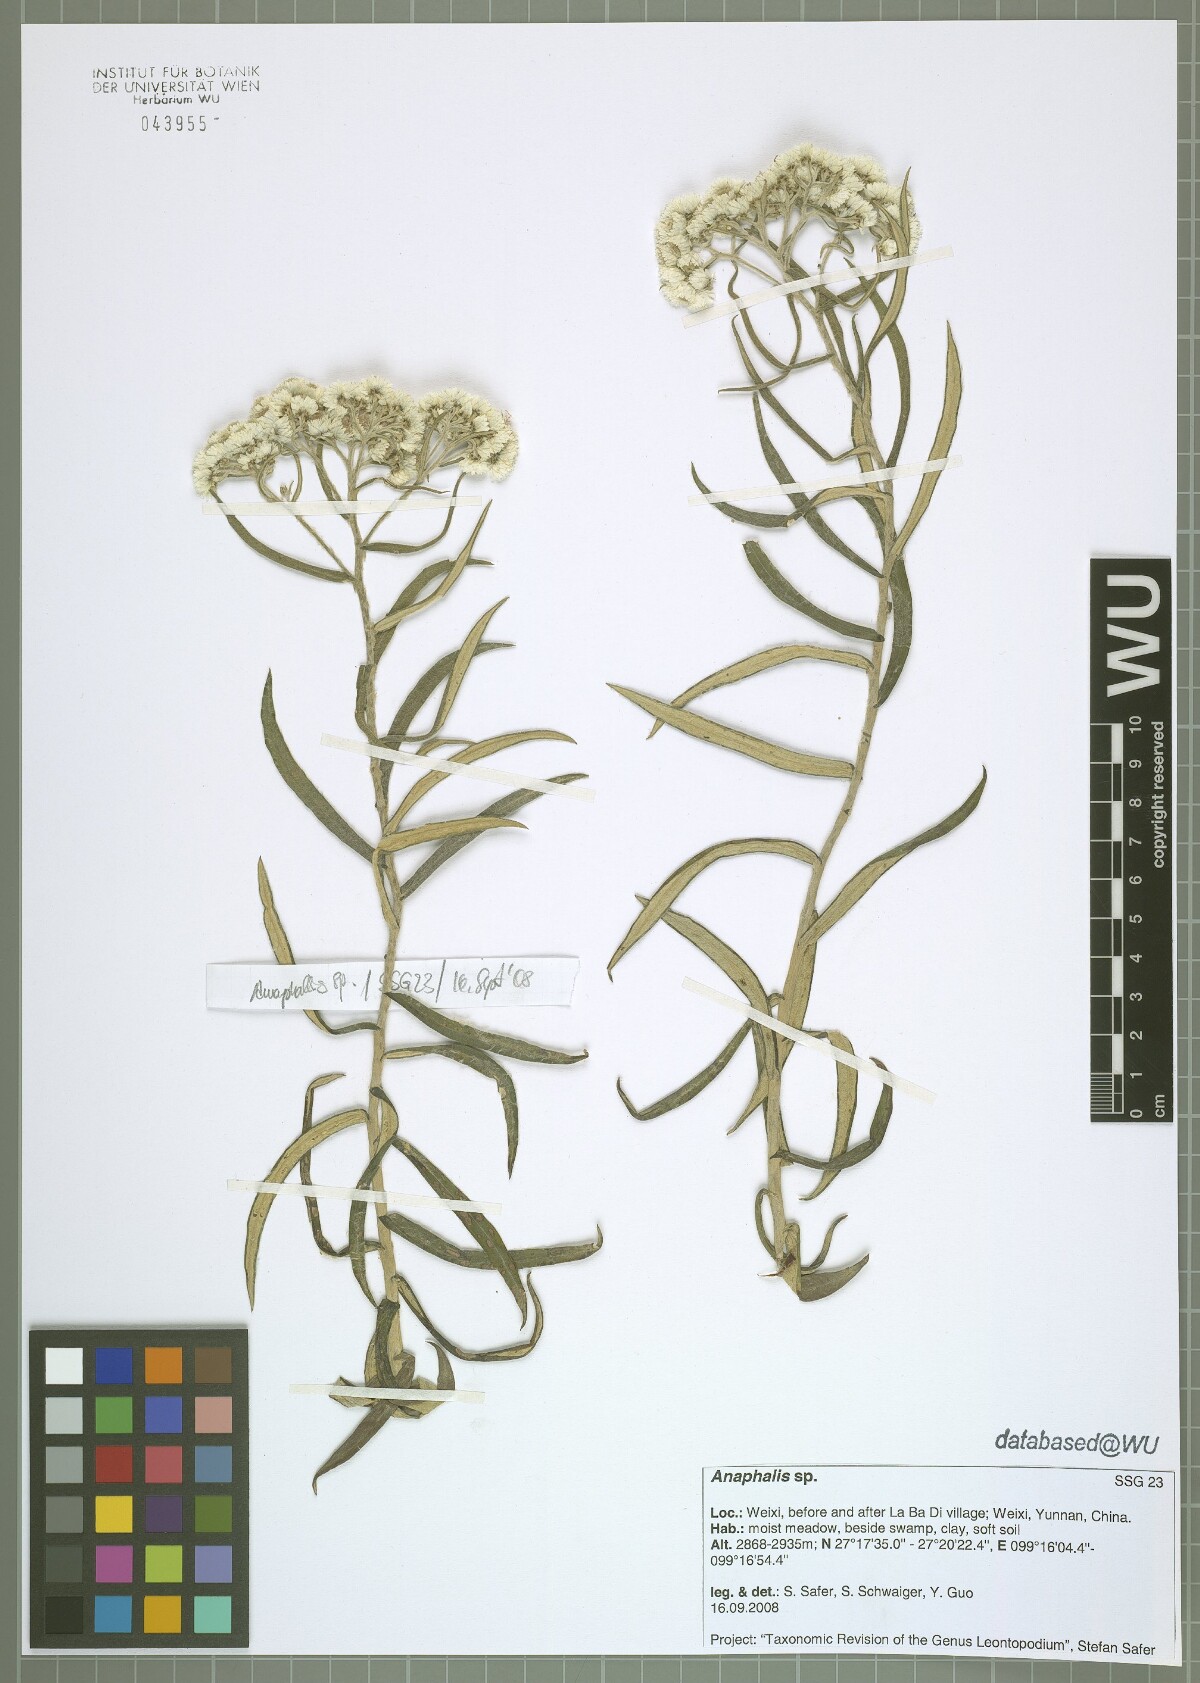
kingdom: Plantae
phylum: Tracheophyta
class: Magnoliopsida
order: Asterales
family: Asteraceae
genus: Anaphalis
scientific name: Anaphalis
